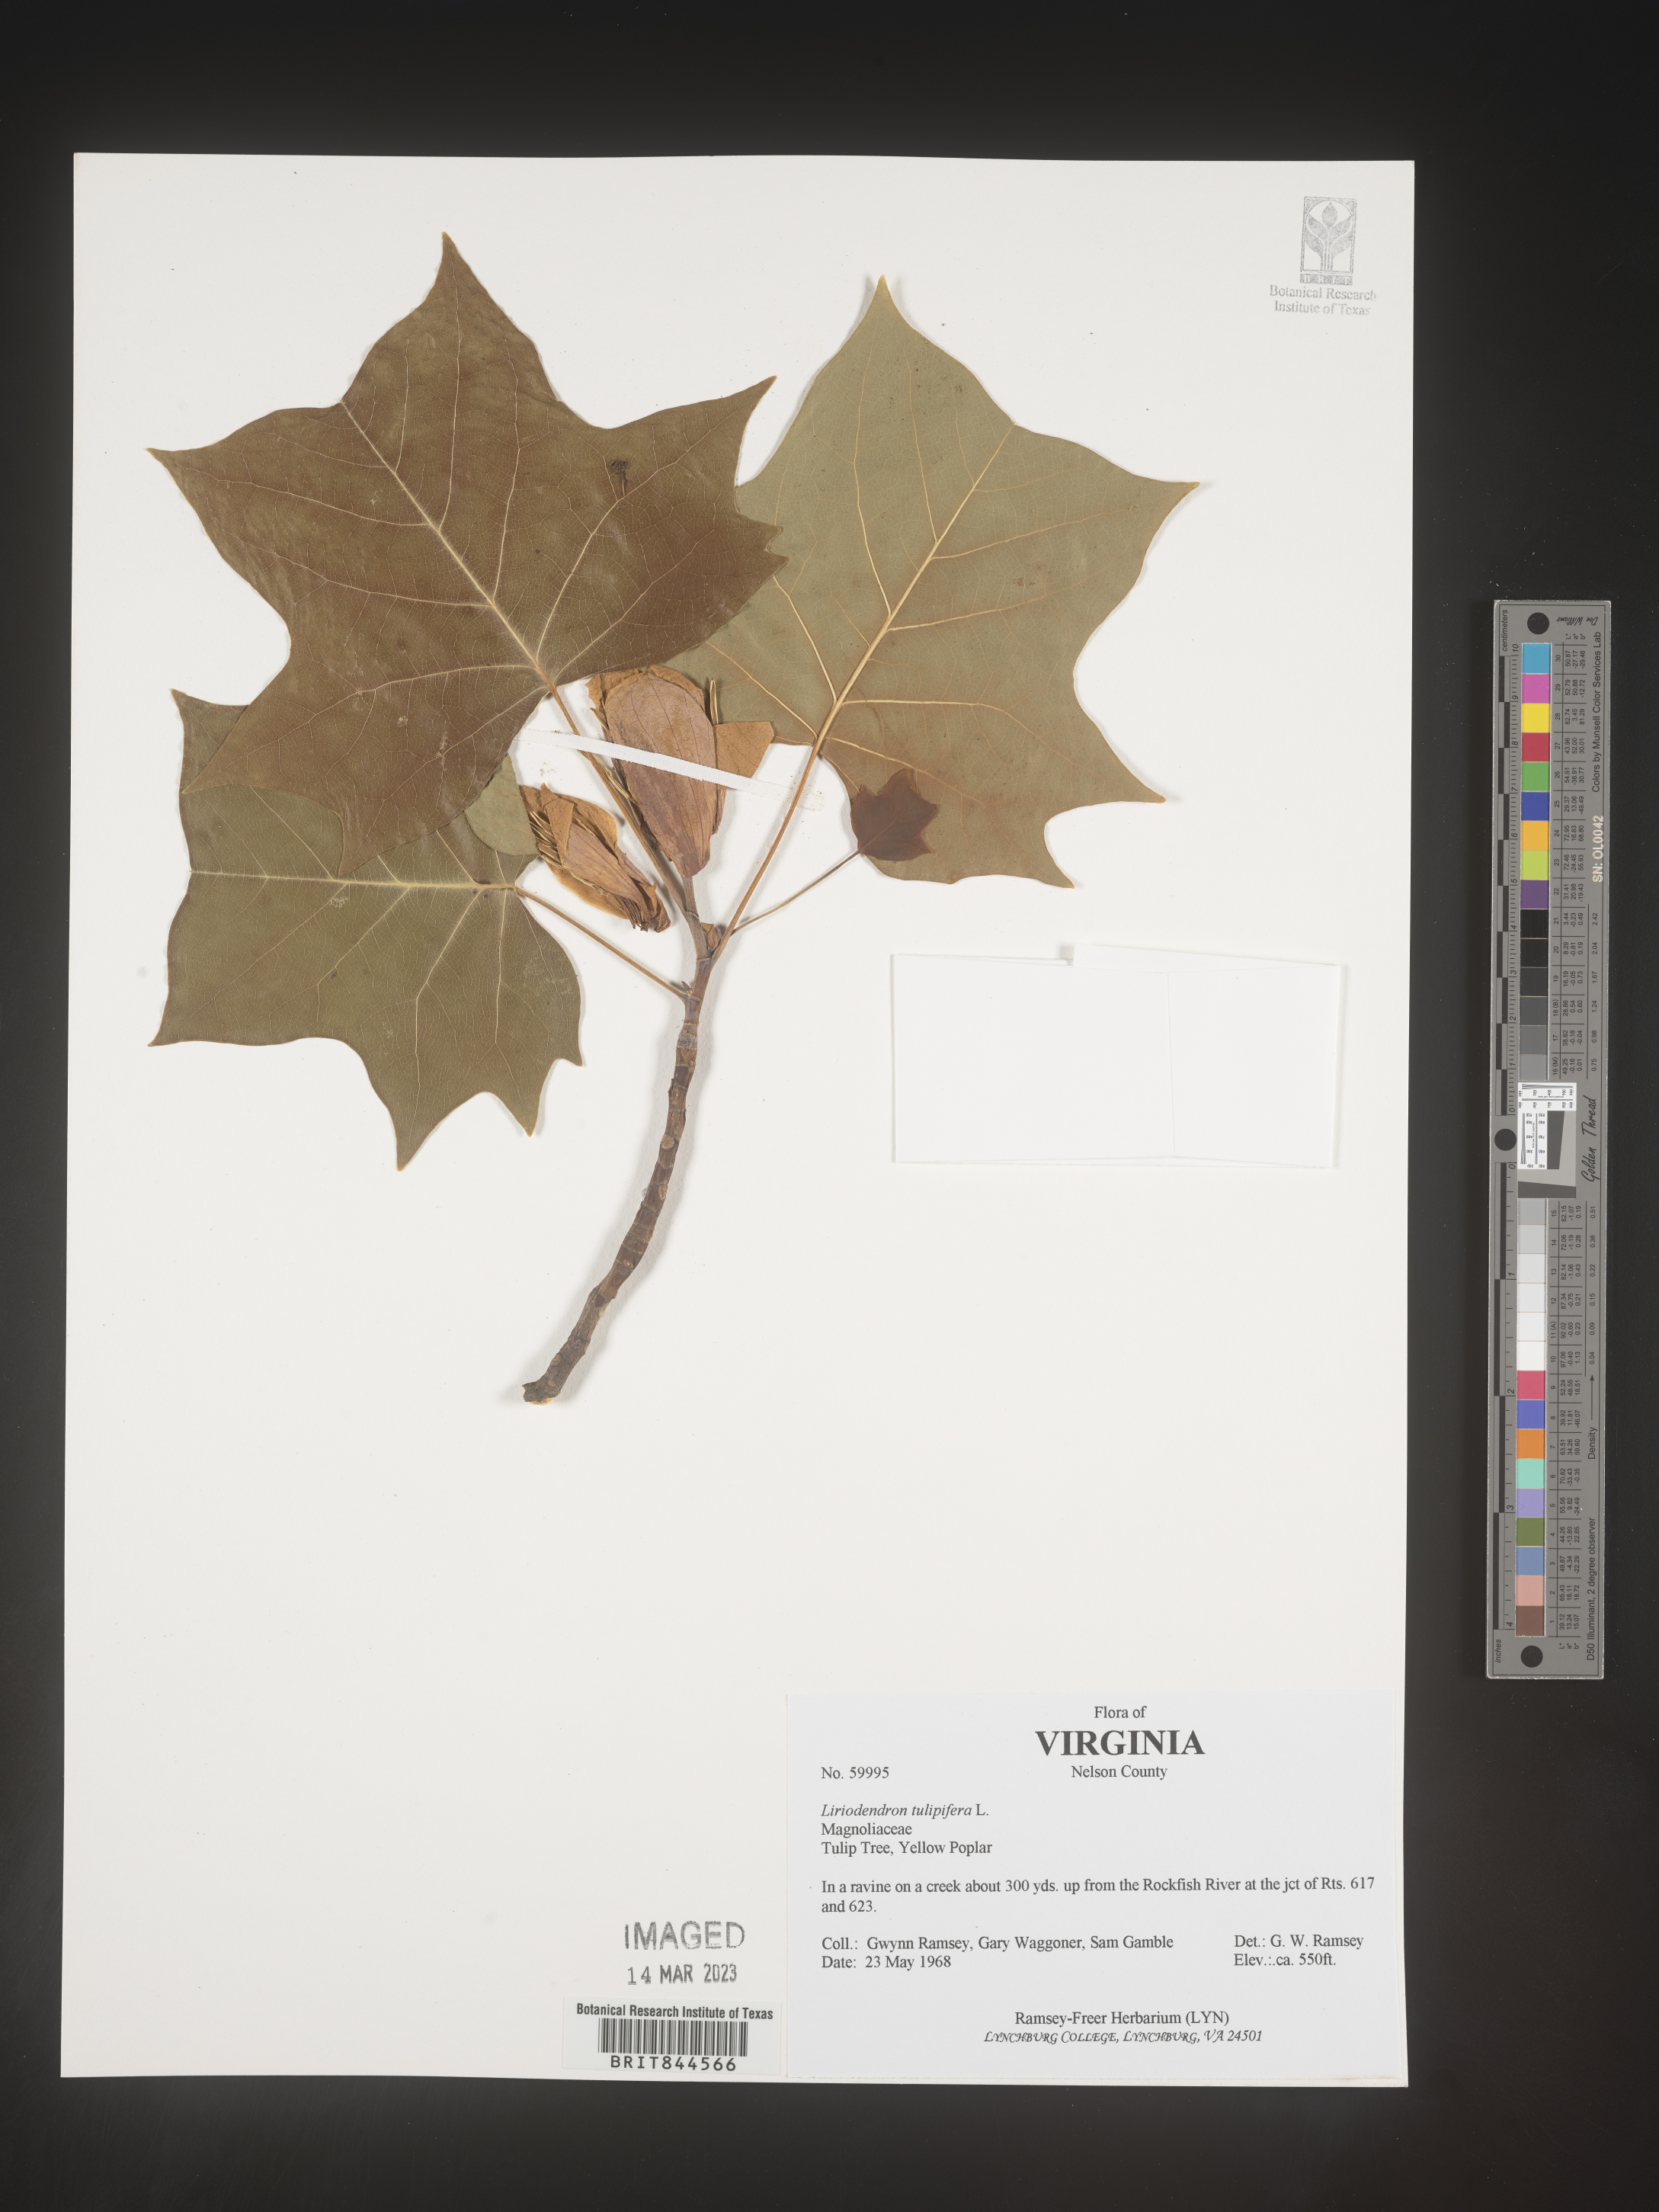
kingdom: Plantae
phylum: Tracheophyta
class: Magnoliopsida
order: Magnoliales
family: Magnoliaceae
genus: Liriodendron
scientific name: Liriodendron tulipifera
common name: Tulip tree
